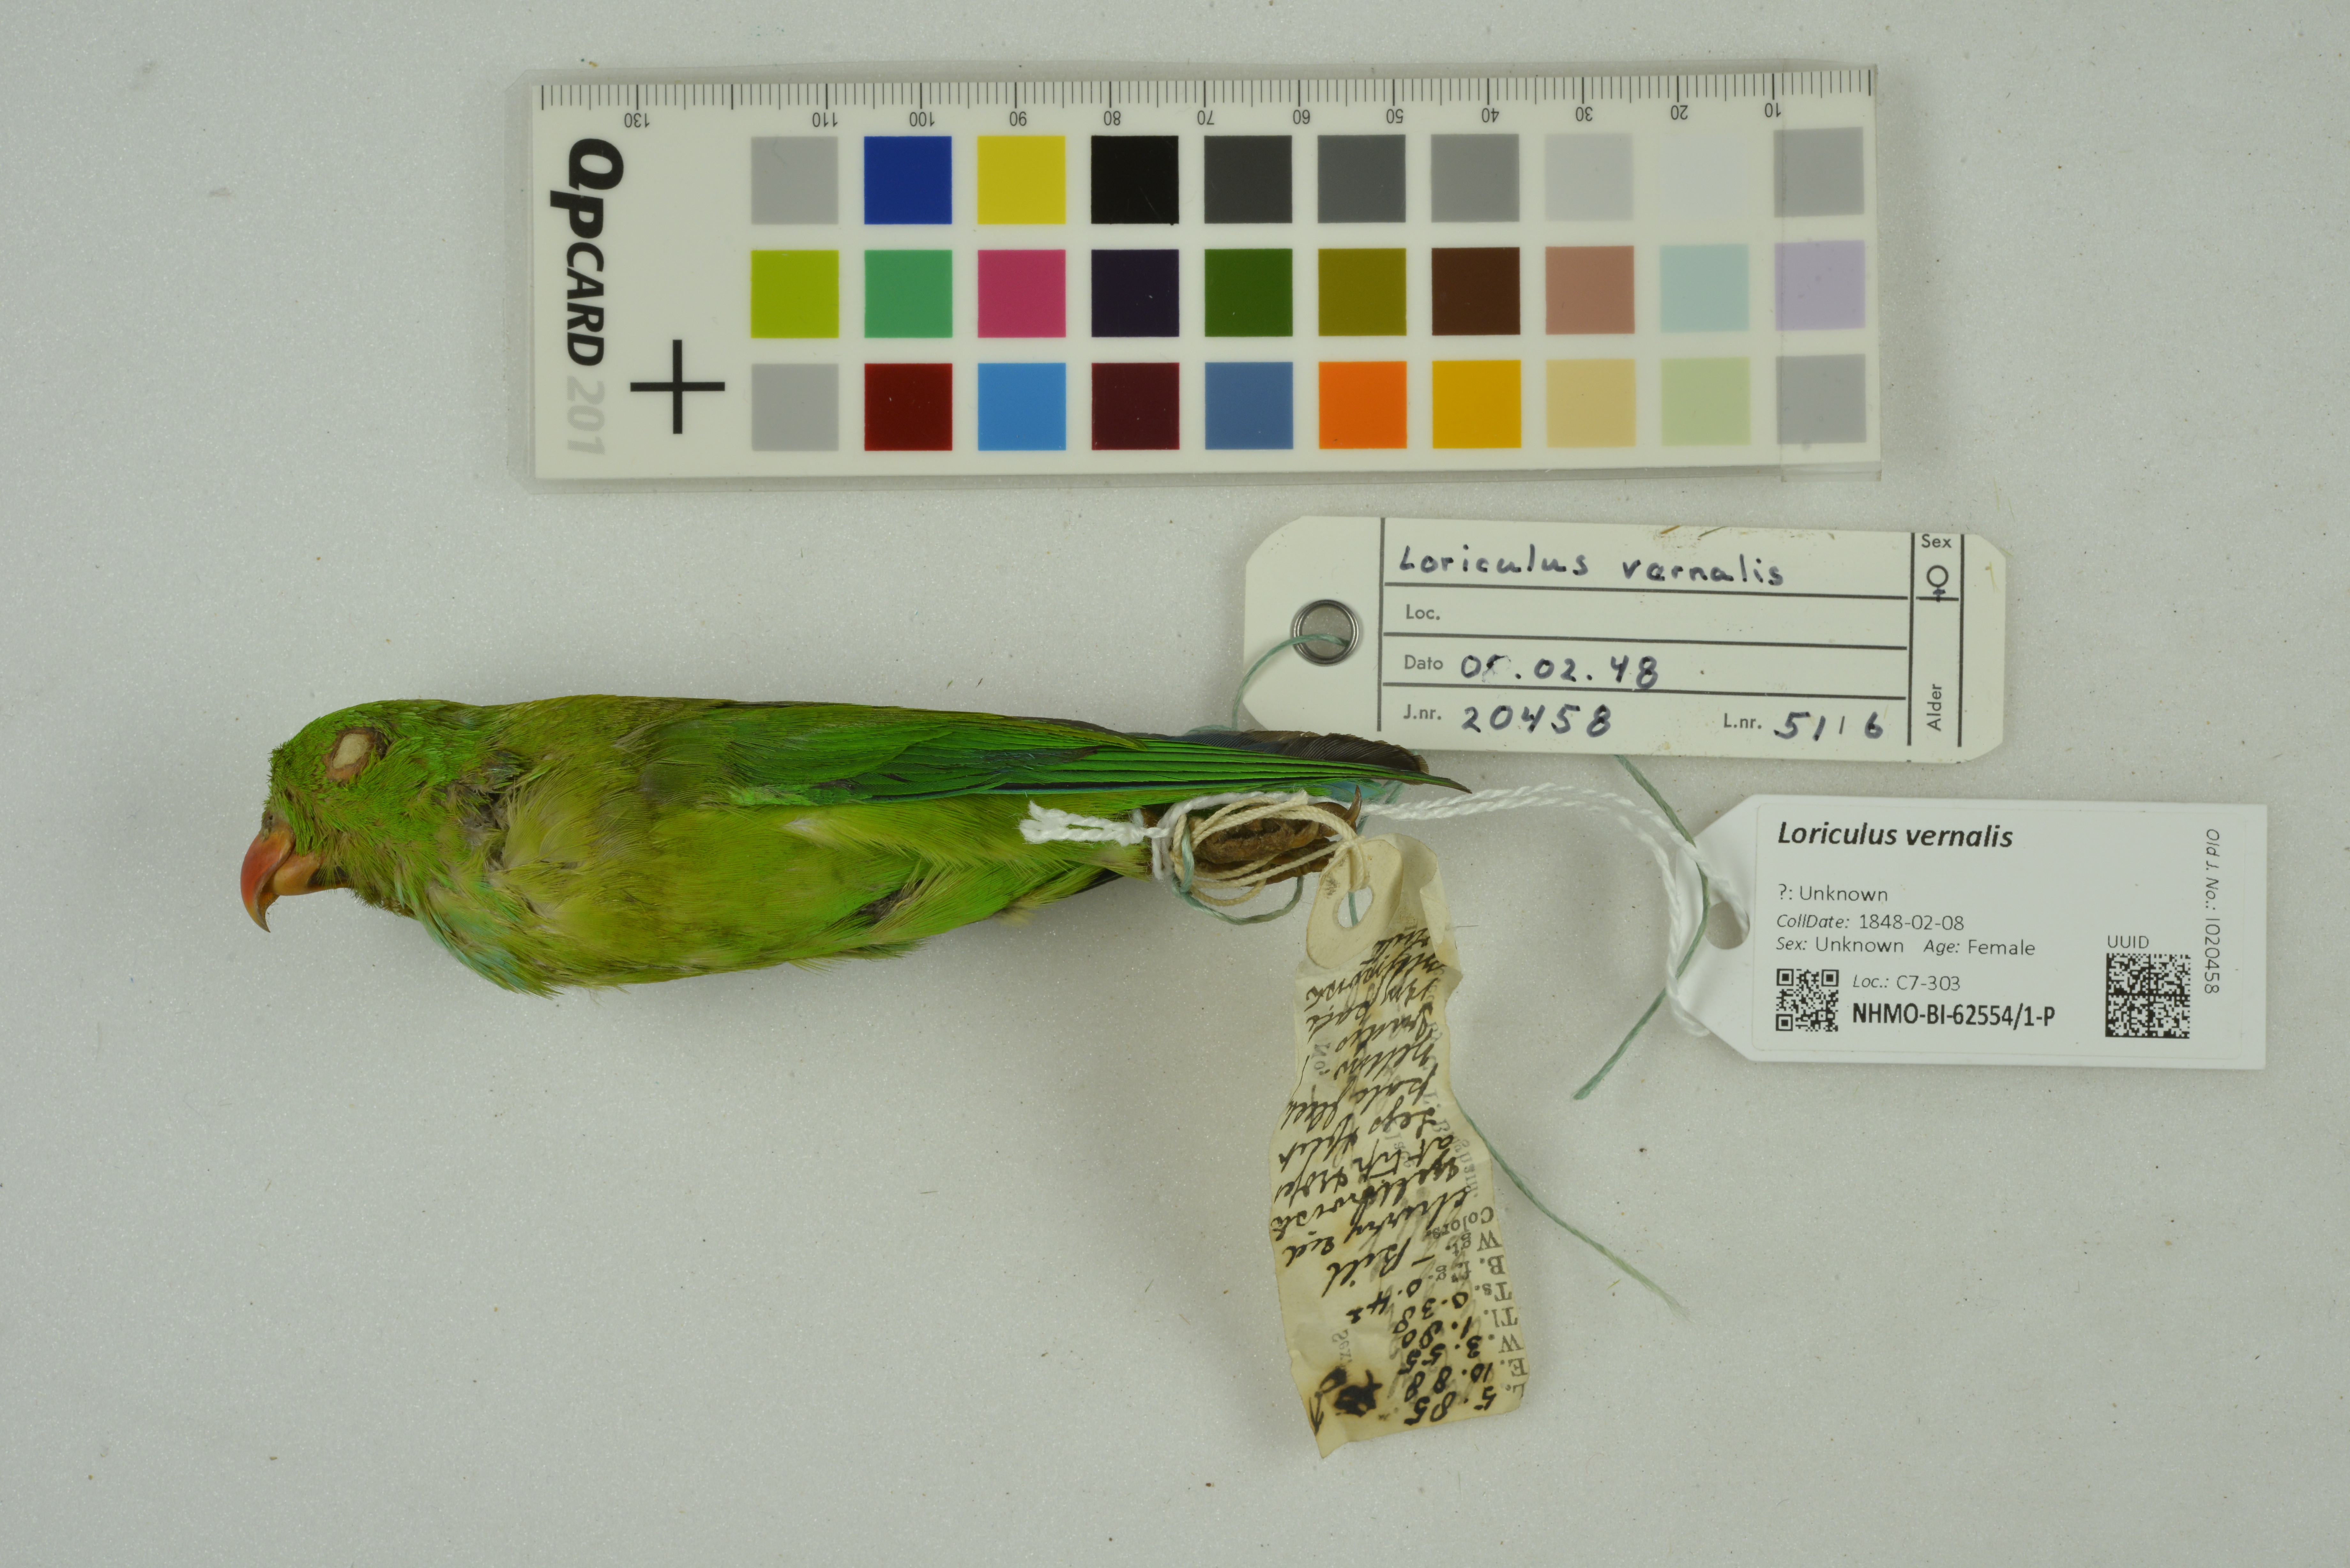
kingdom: Animalia
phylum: Chordata
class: Aves
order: Psittaciformes
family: Psittacidae
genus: Loriculus
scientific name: Loriculus vernalis
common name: Vernal hanging parrot
